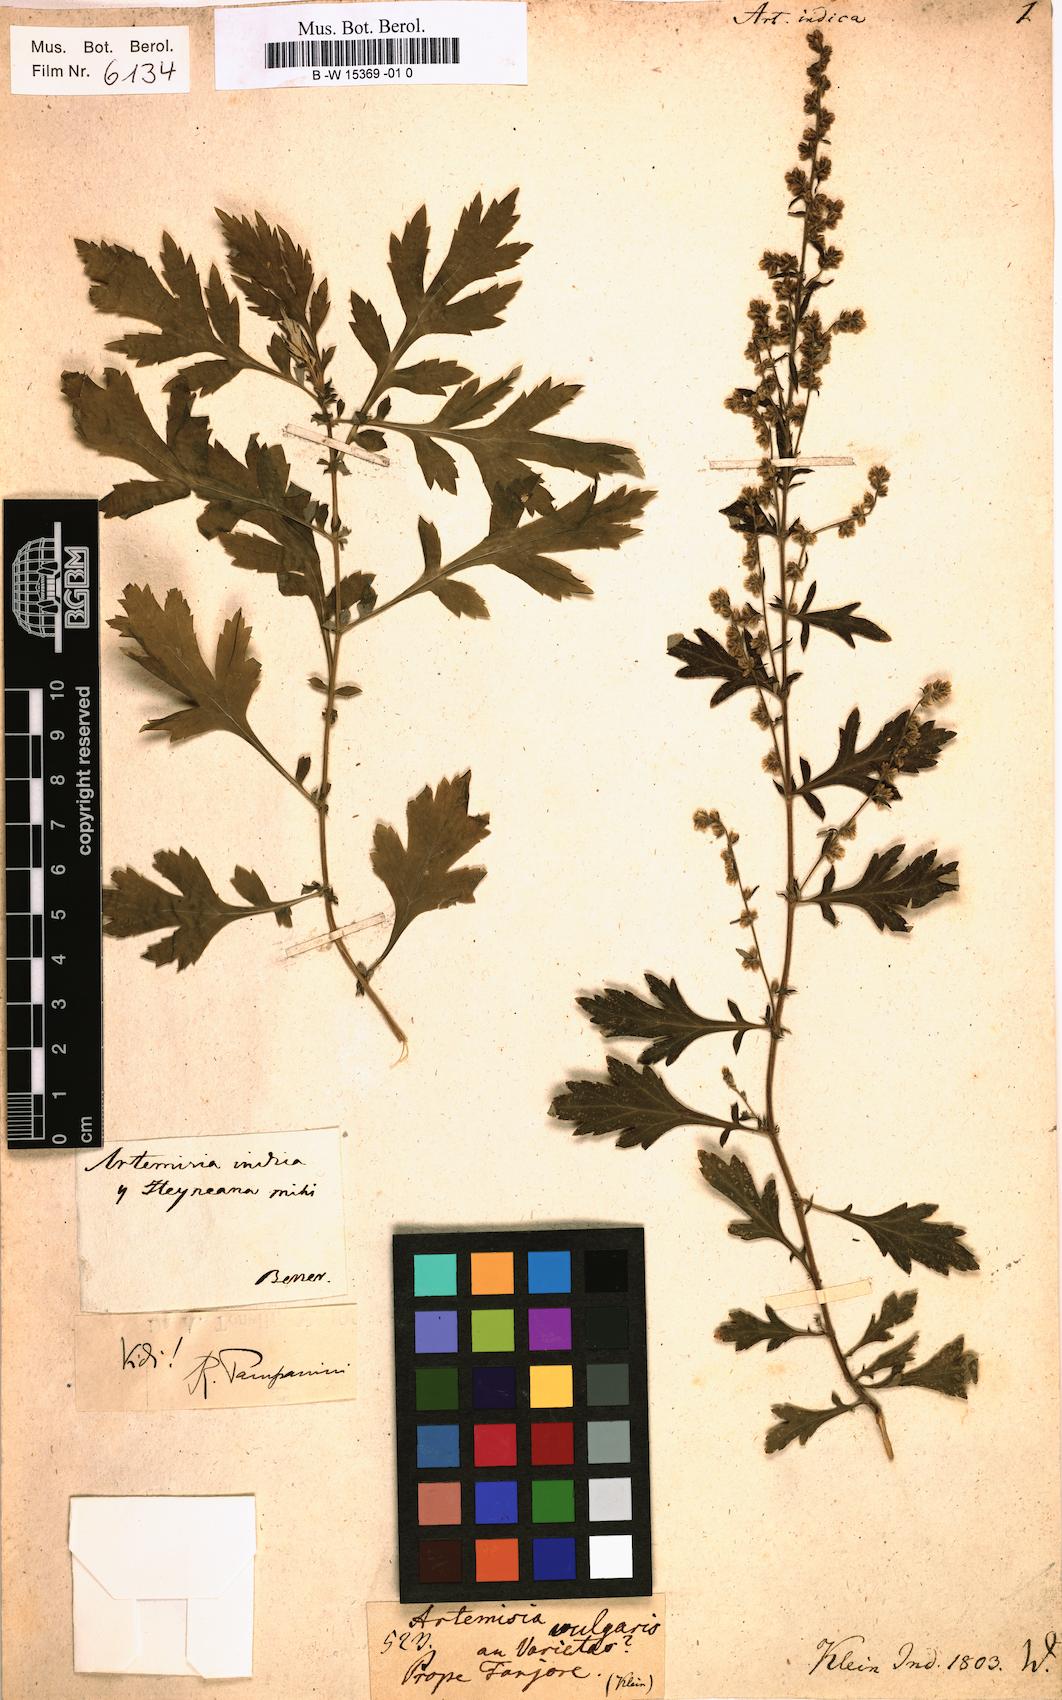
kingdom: Plantae
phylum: Tracheophyta
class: Magnoliopsida
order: Asterales
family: Asteraceae
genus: Artemisia
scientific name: Artemisia vulgaris
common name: Mugwort
